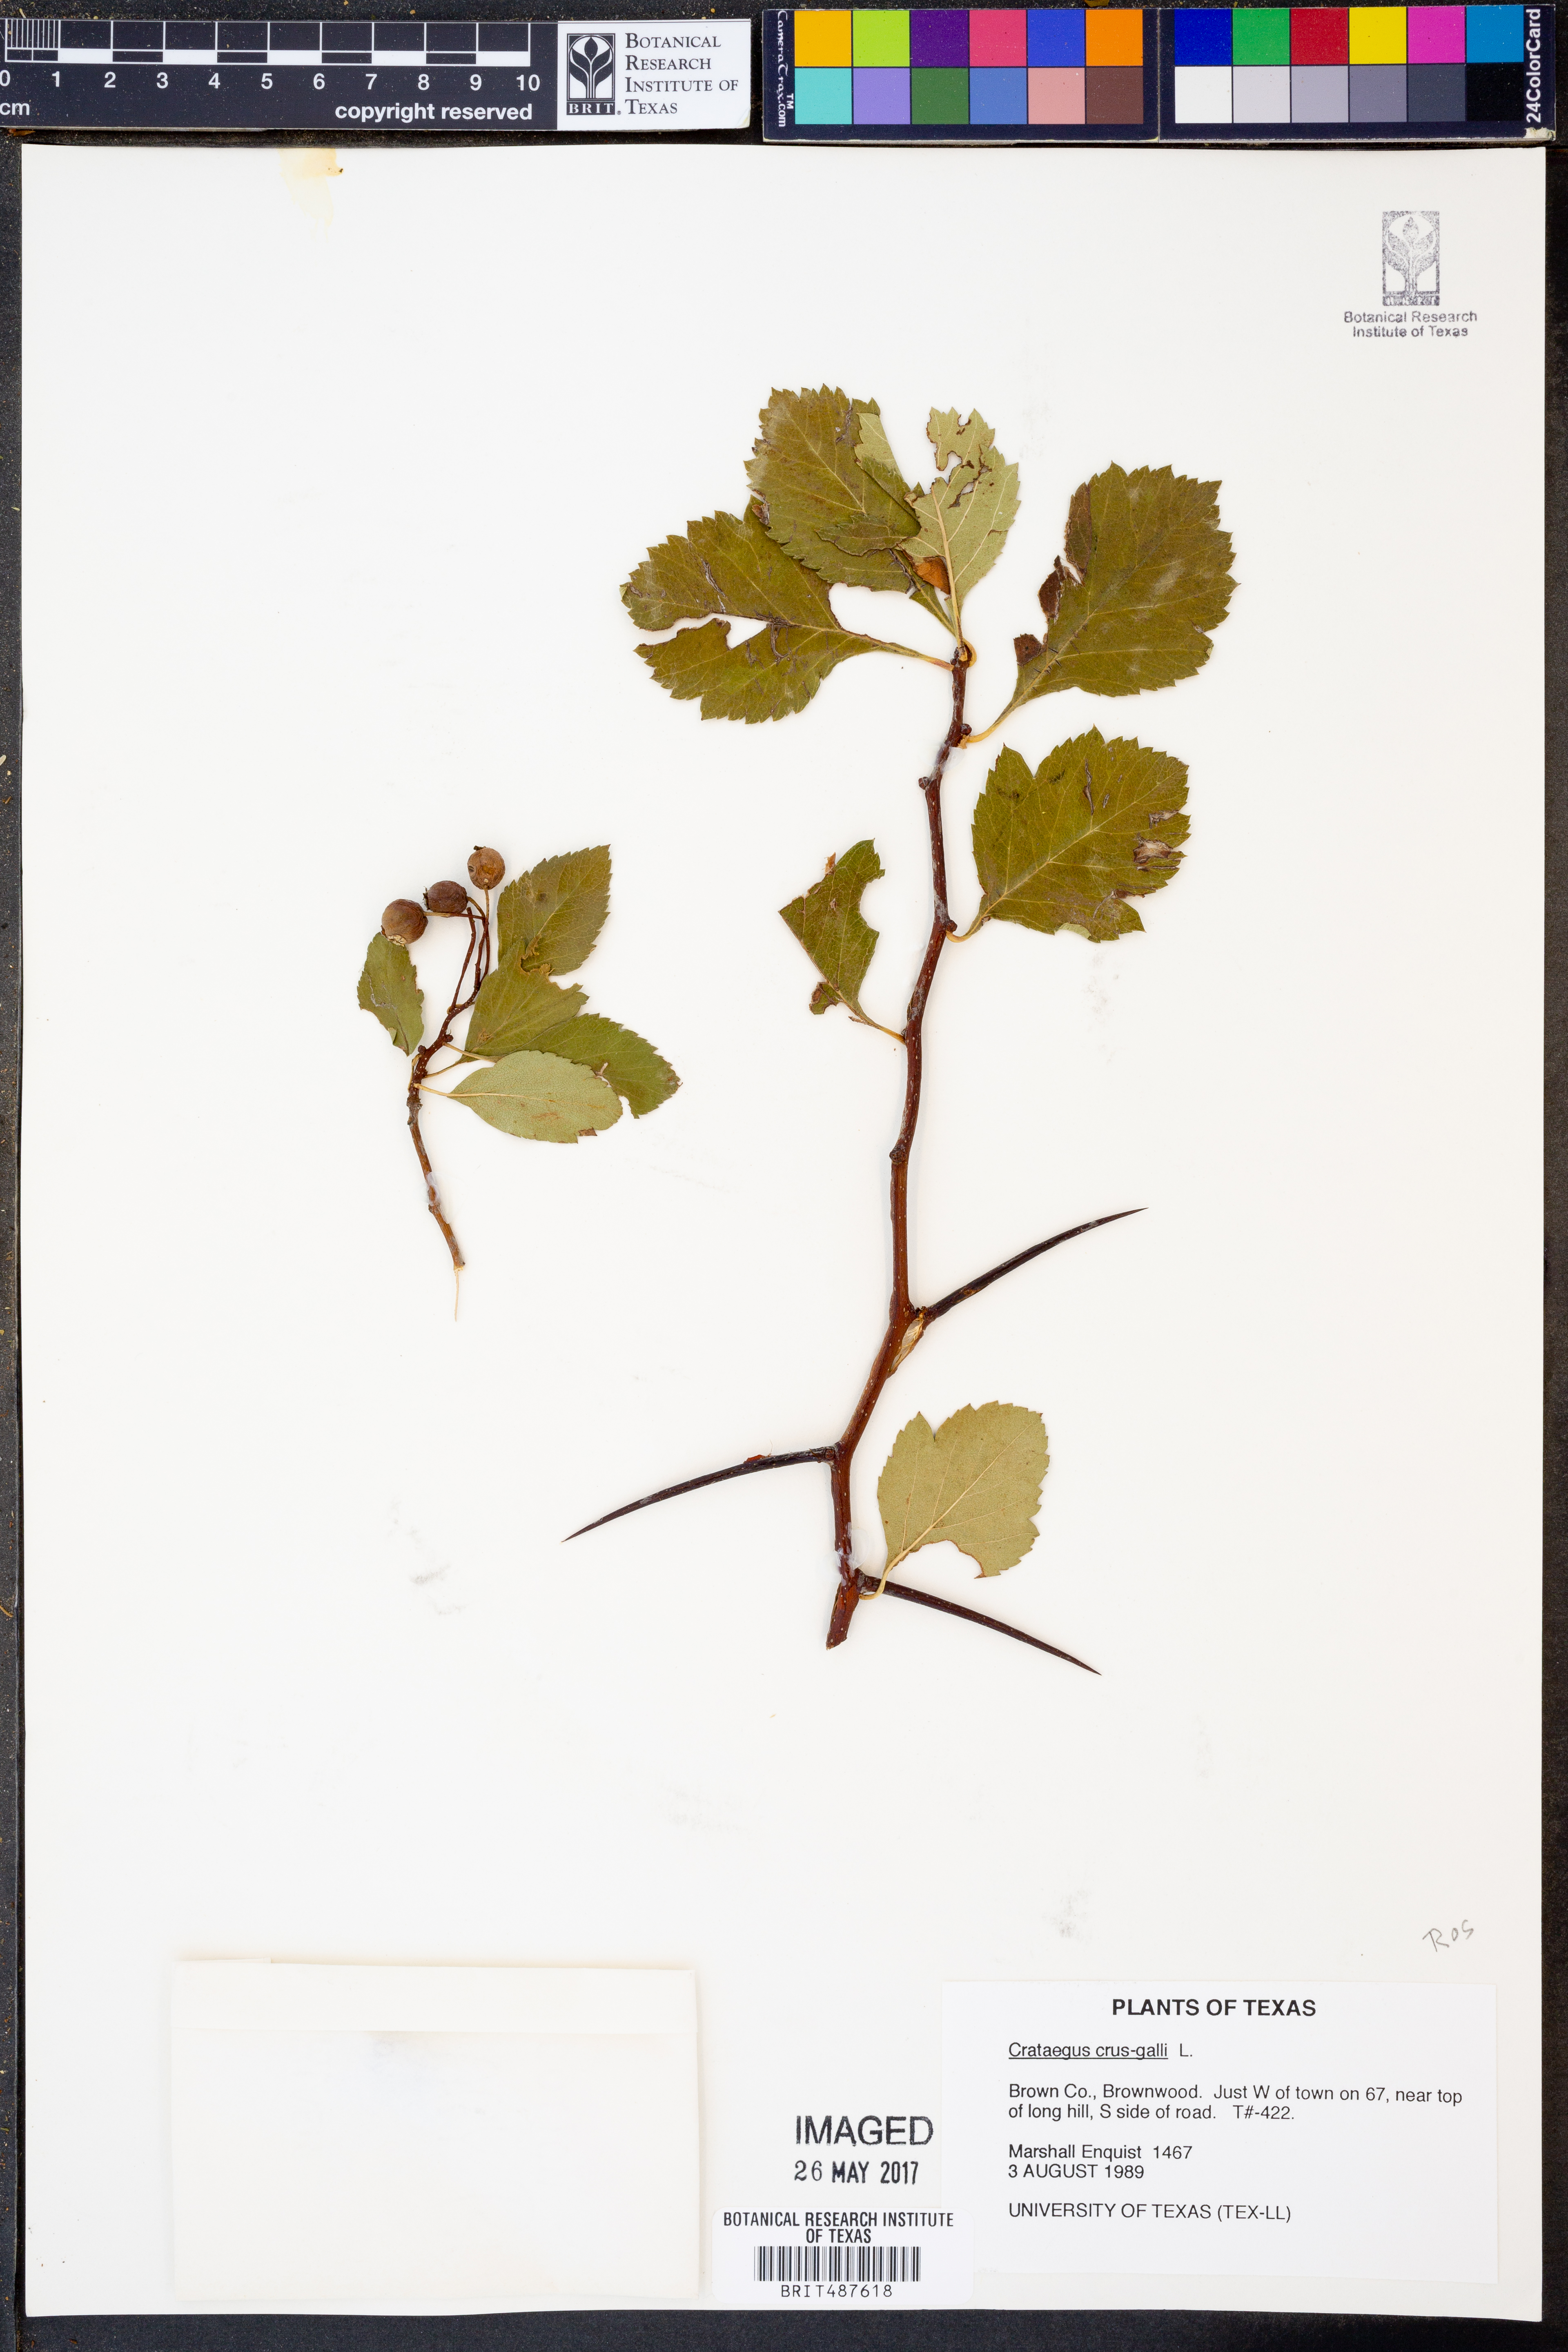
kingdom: Plantae
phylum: Tracheophyta
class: Magnoliopsida
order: Rosales
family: Rosaceae
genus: Crataegus
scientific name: Crataegus crus-galli
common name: Cockspurthorn
